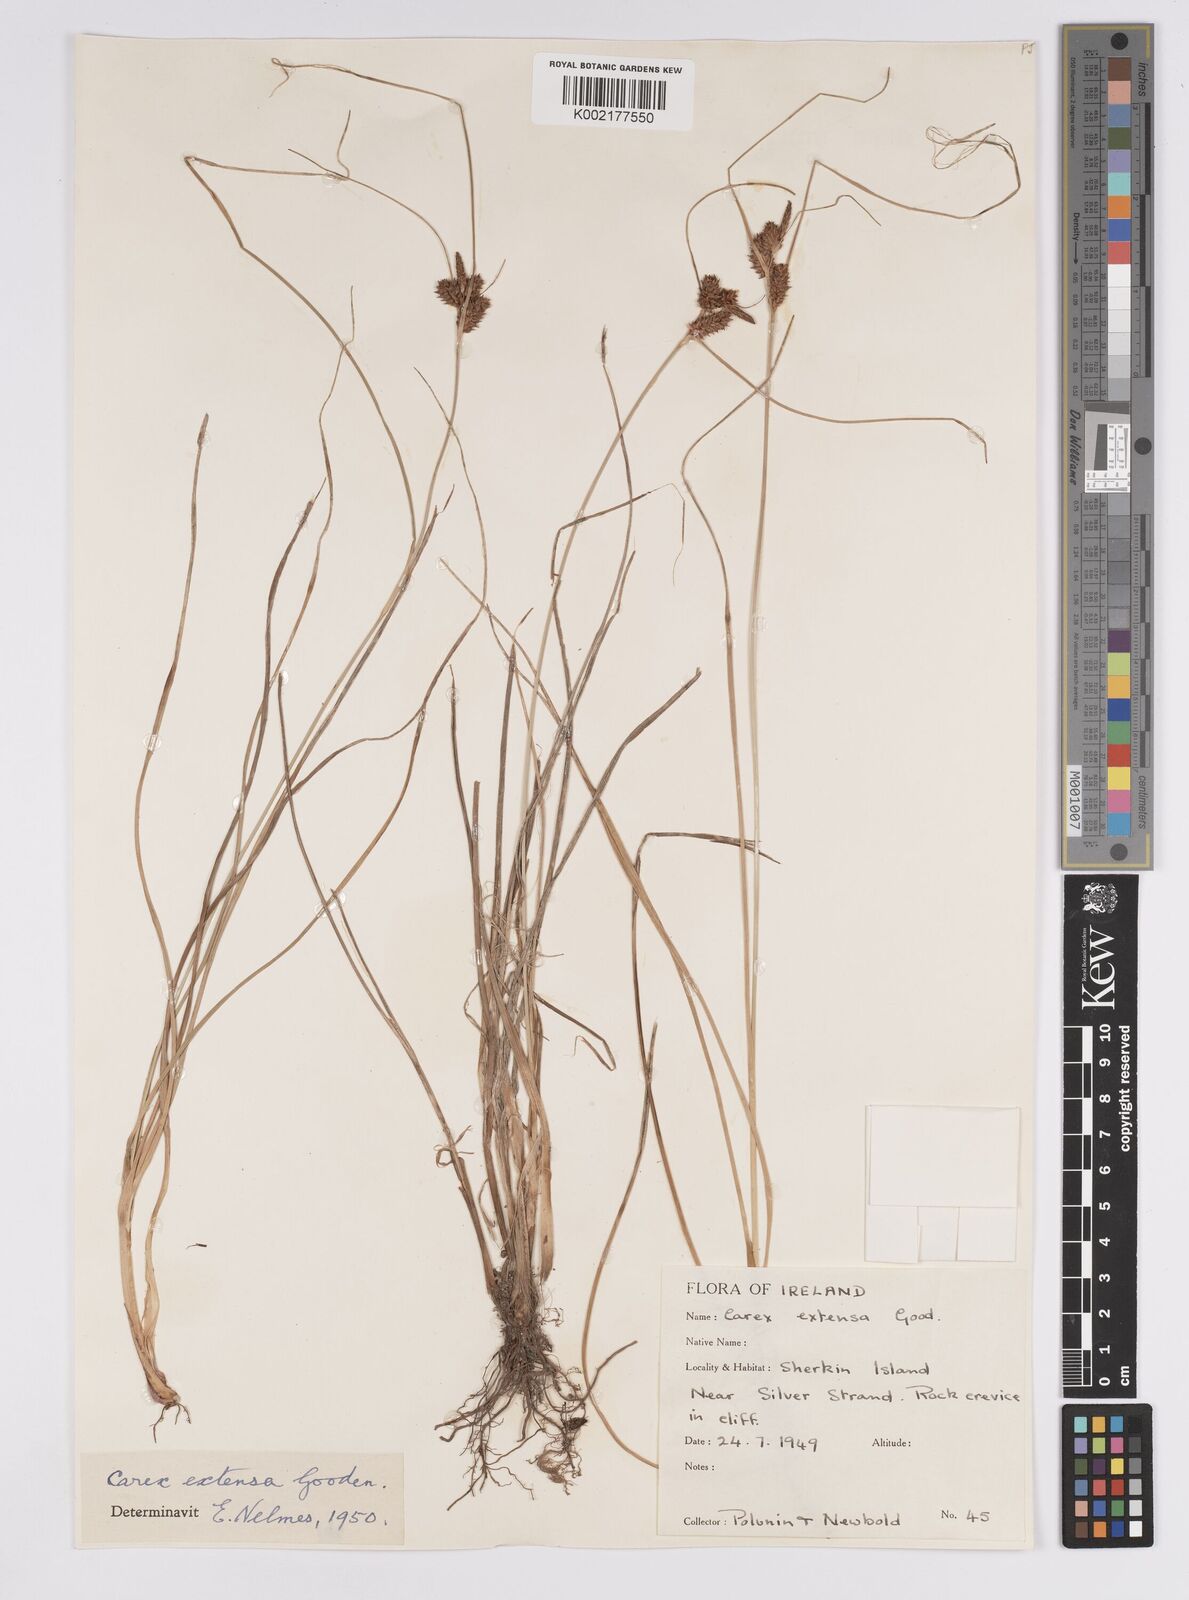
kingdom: Plantae
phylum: Tracheophyta
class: Liliopsida
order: Poales
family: Cyperaceae
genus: Carex
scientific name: Carex extensa
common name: Long-bracted sedge
